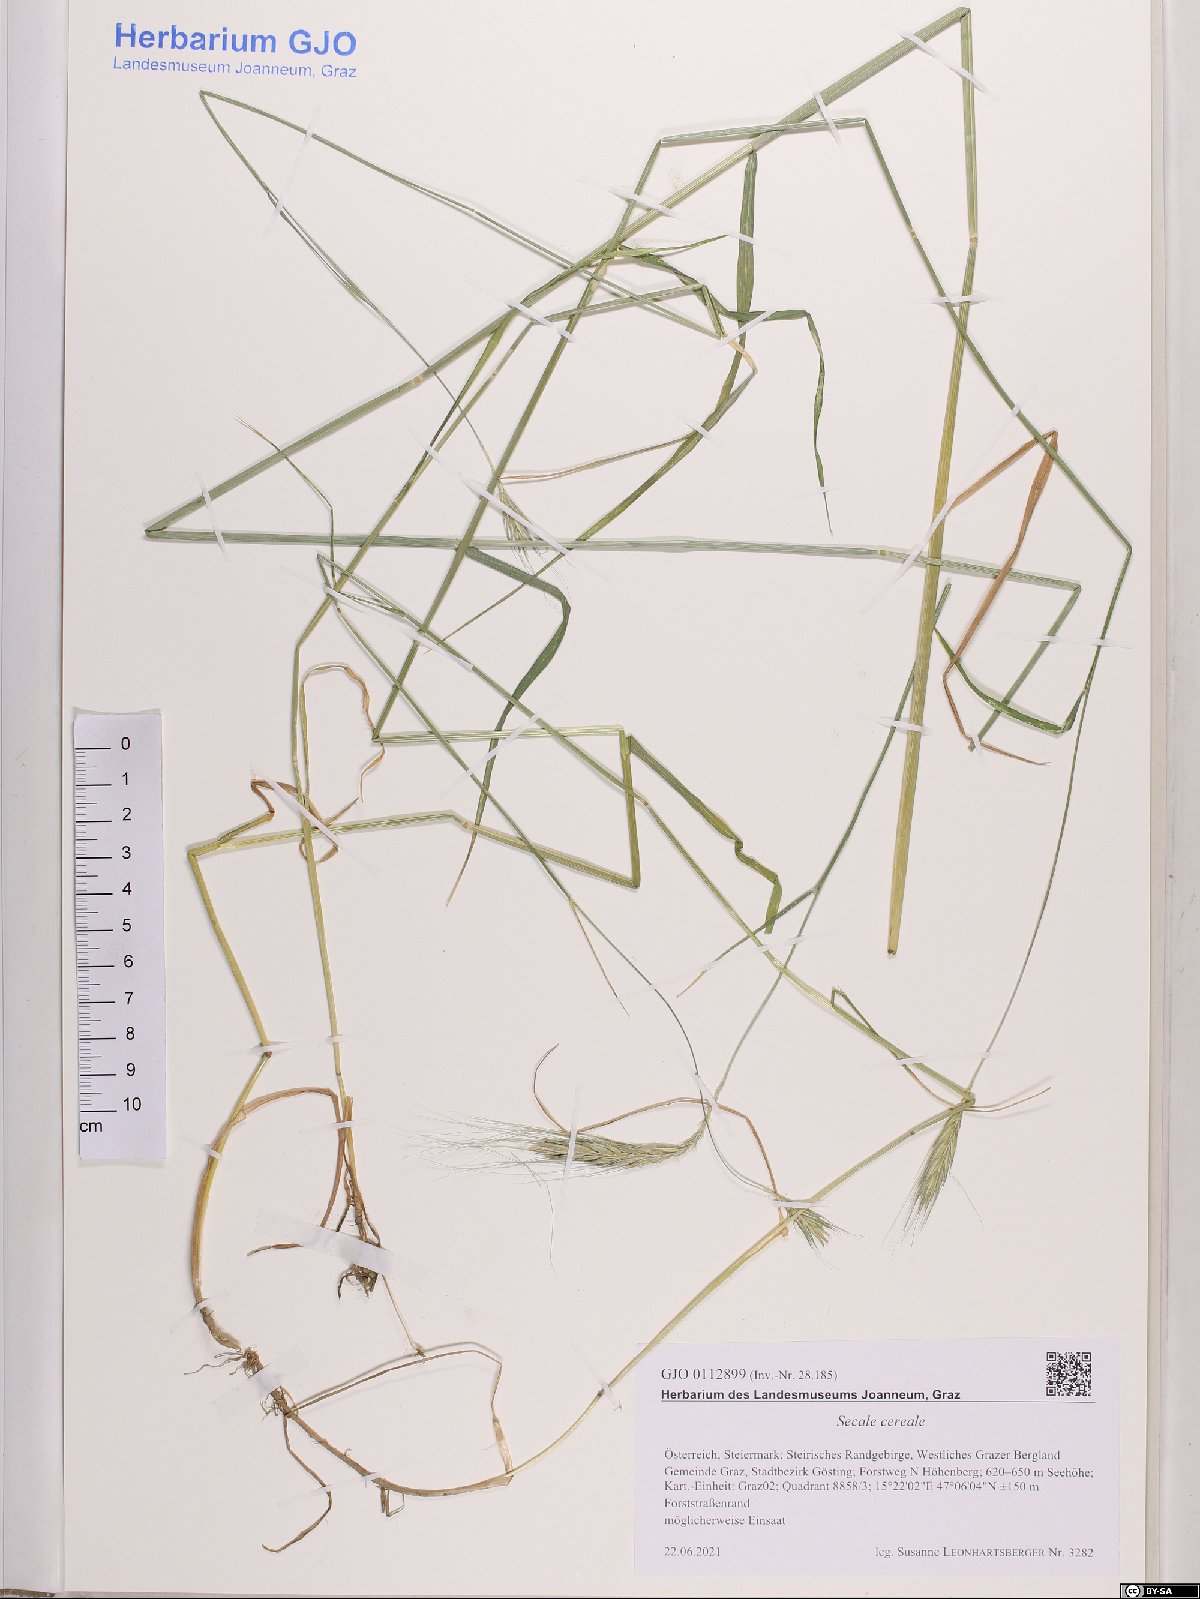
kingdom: Plantae
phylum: Tracheophyta
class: Liliopsida
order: Poales
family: Poaceae
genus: Secale
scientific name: Secale cereale
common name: Rye
